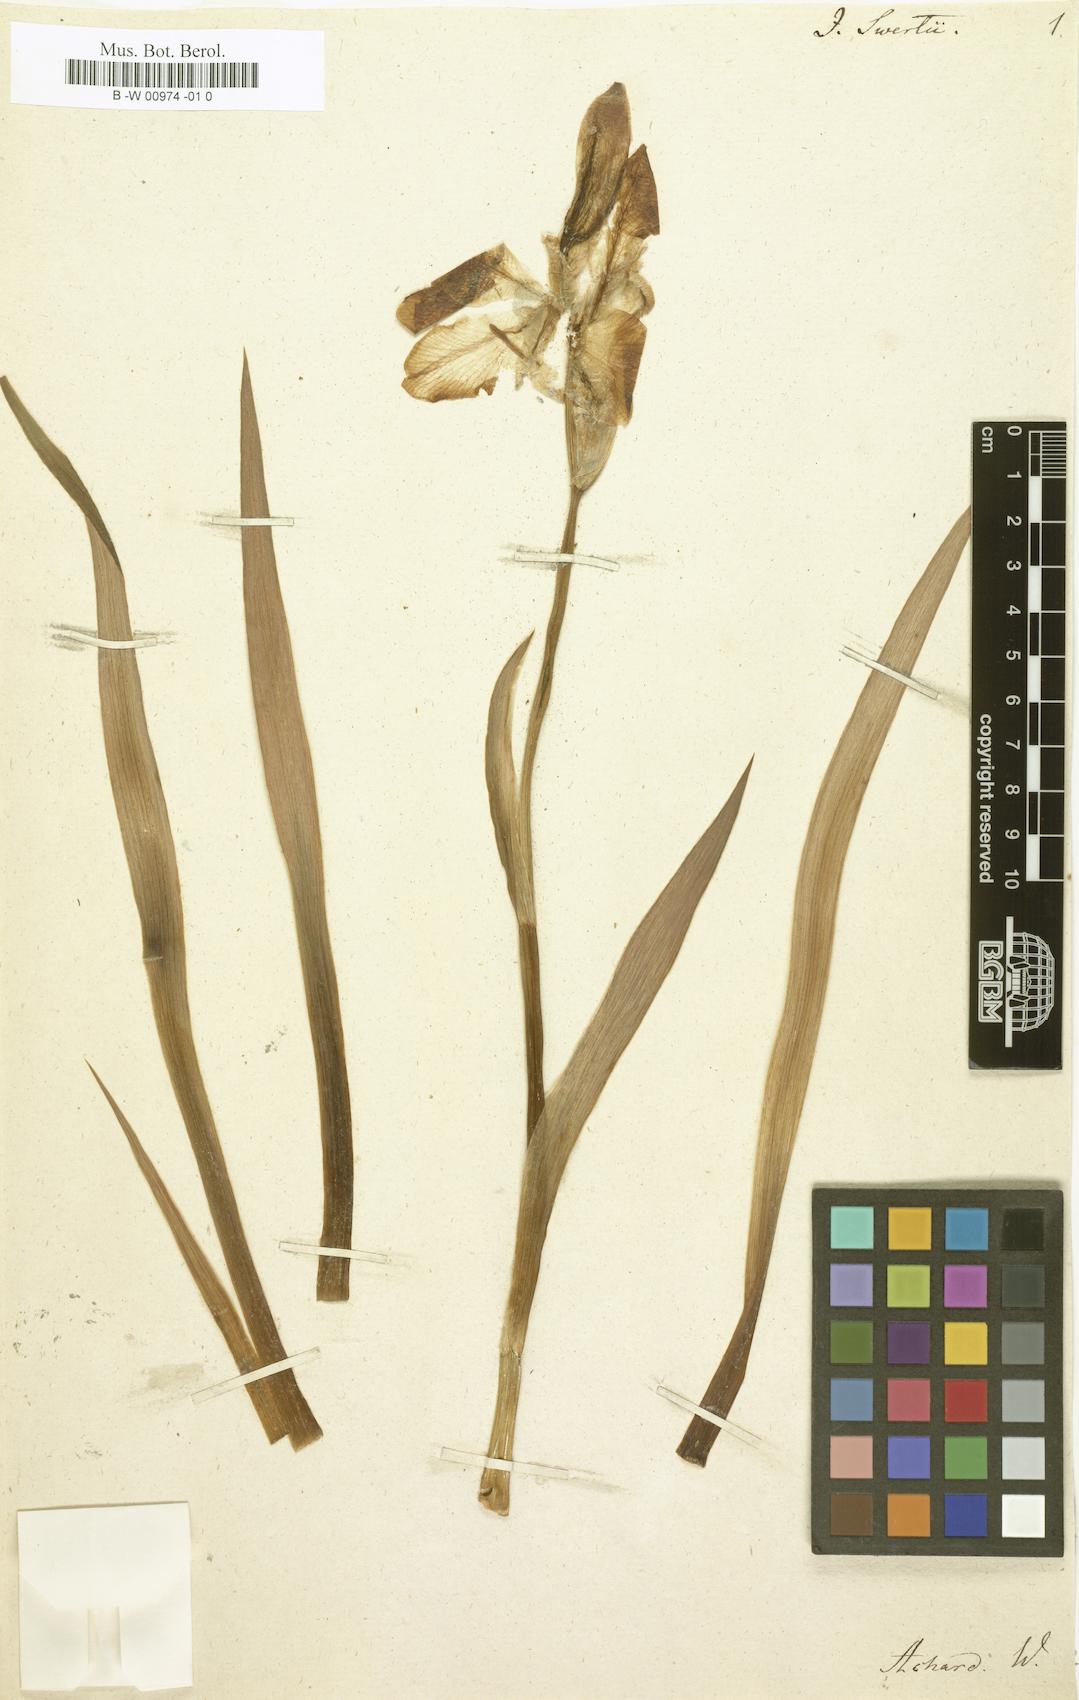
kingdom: Plantae
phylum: Tracheophyta
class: Liliopsida
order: Asparagales
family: Iridaceae
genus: Iris
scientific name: Iris pallida
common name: Sweet iris
